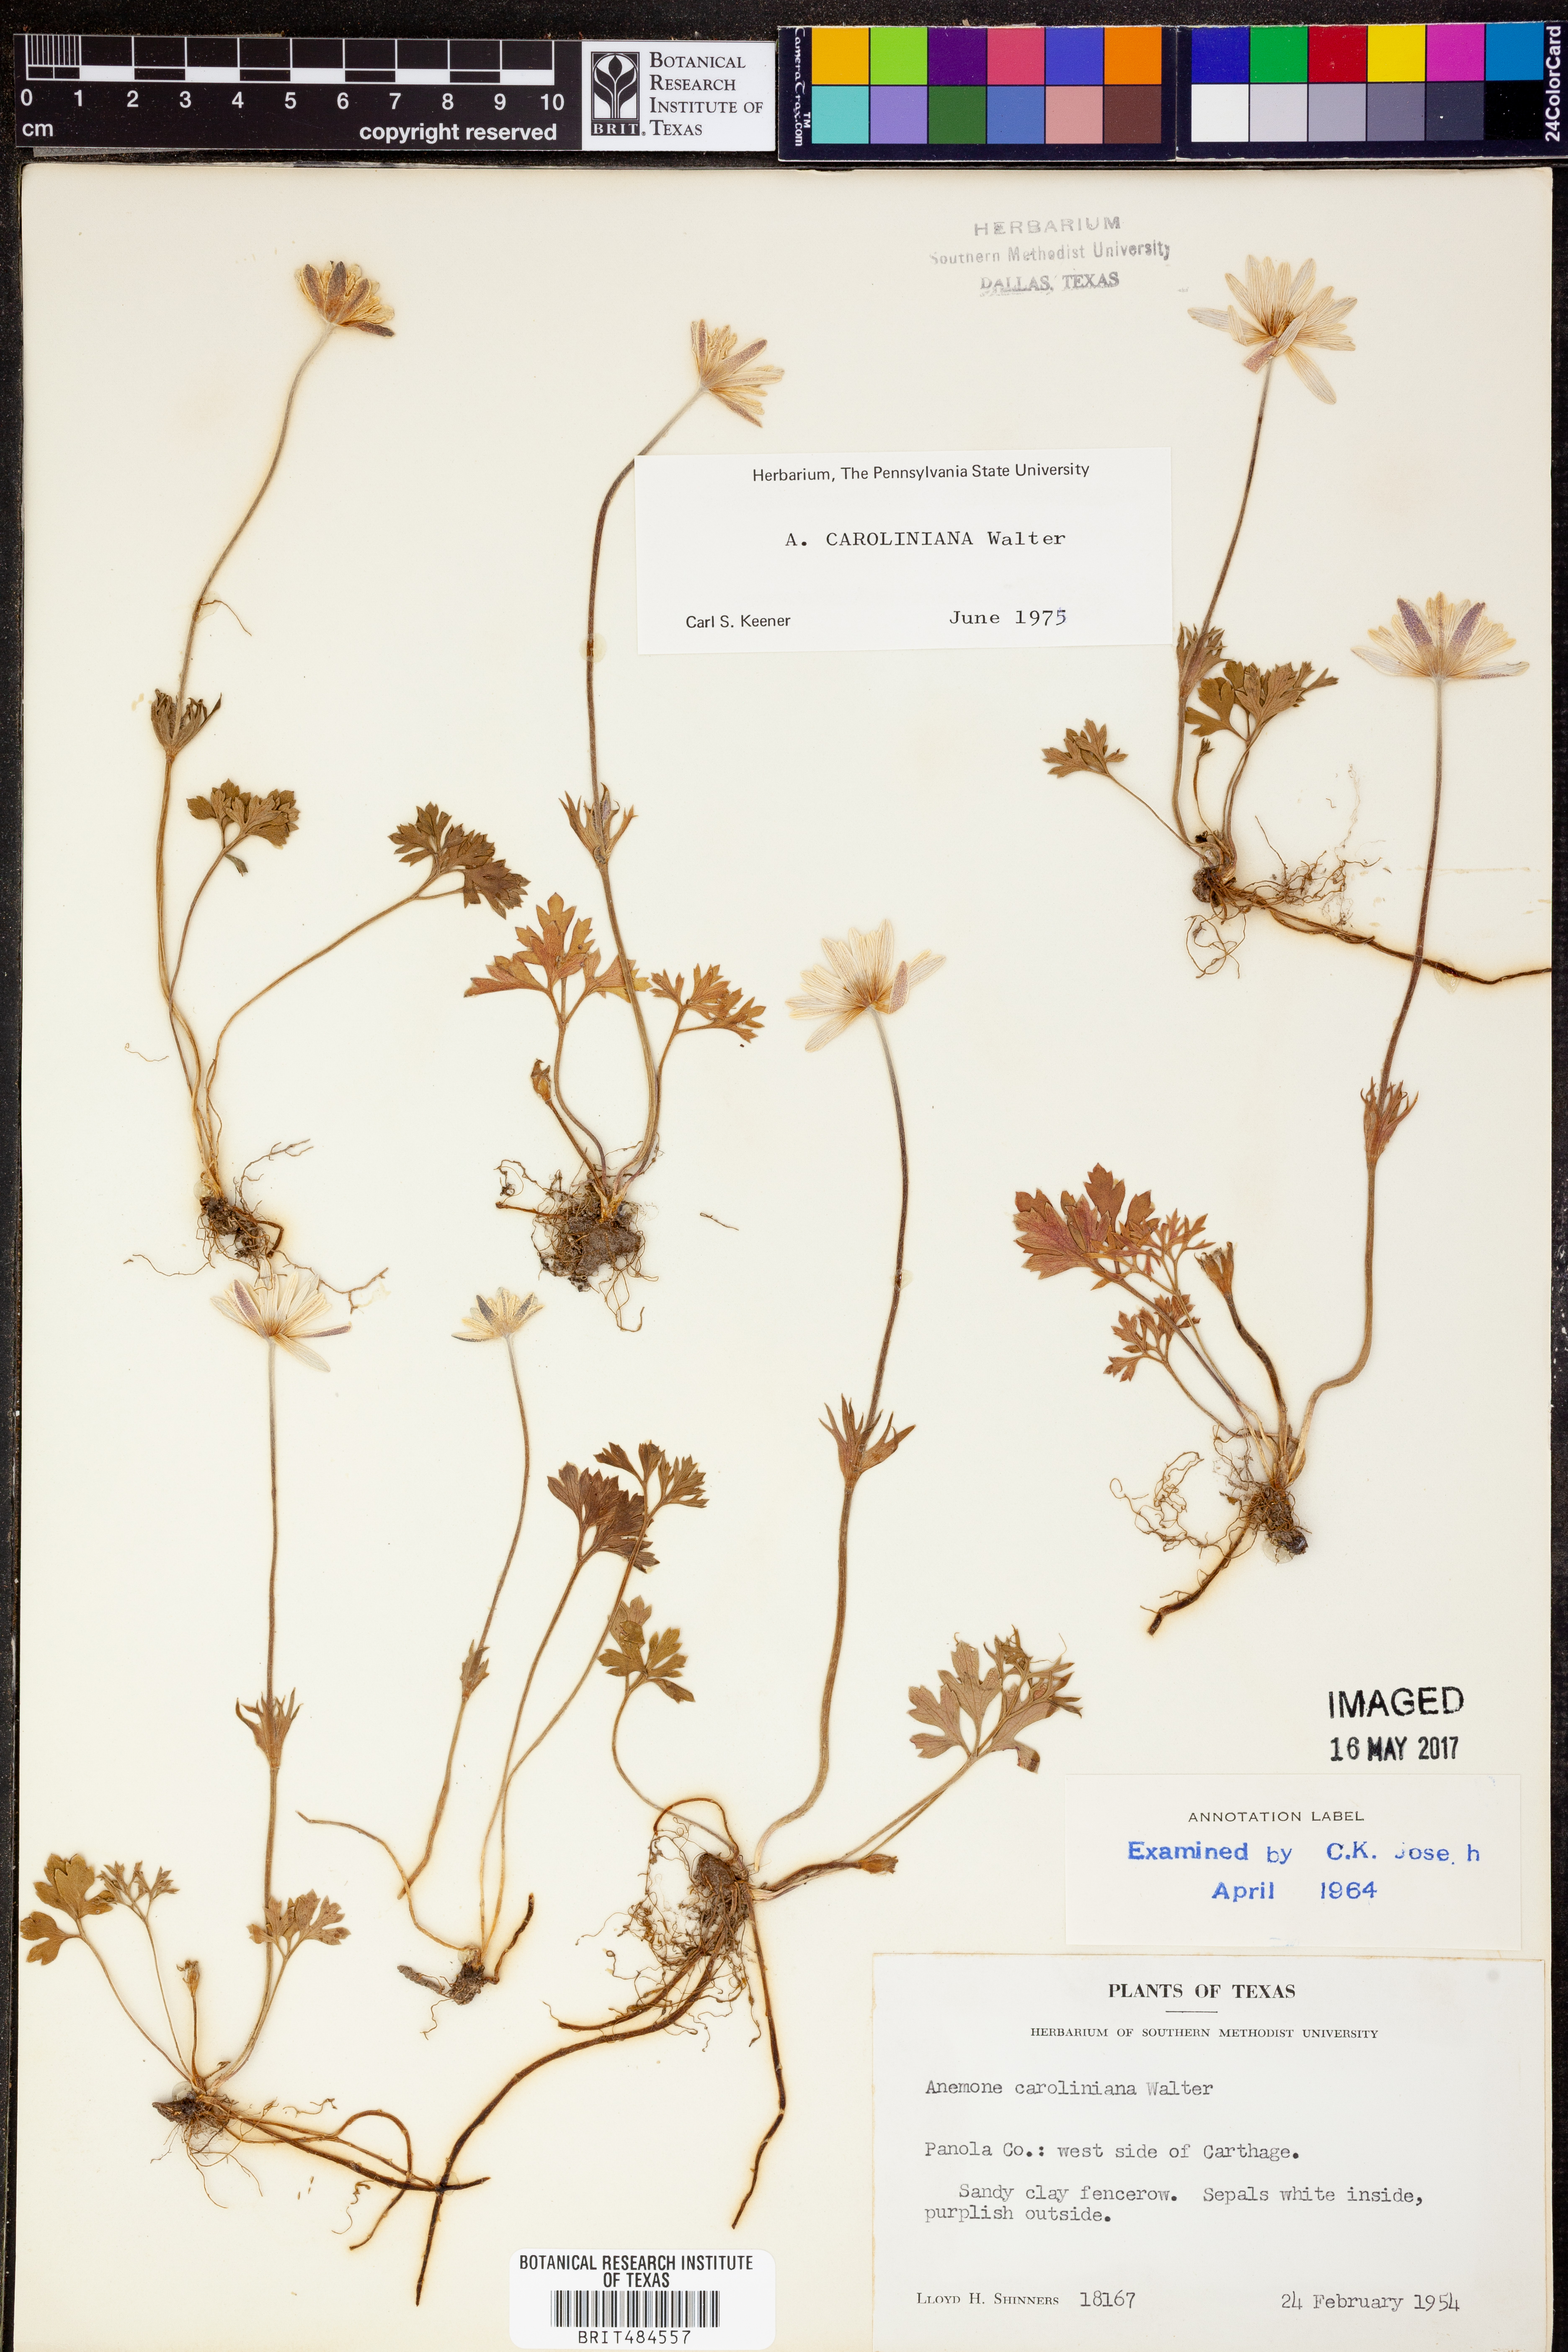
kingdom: Plantae
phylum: Tracheophyta
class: Magnoliopsida
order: Ranunculales
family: Ranunculaceae
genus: Anemone
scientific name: Anemone caroliniana
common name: Carolina anemone
